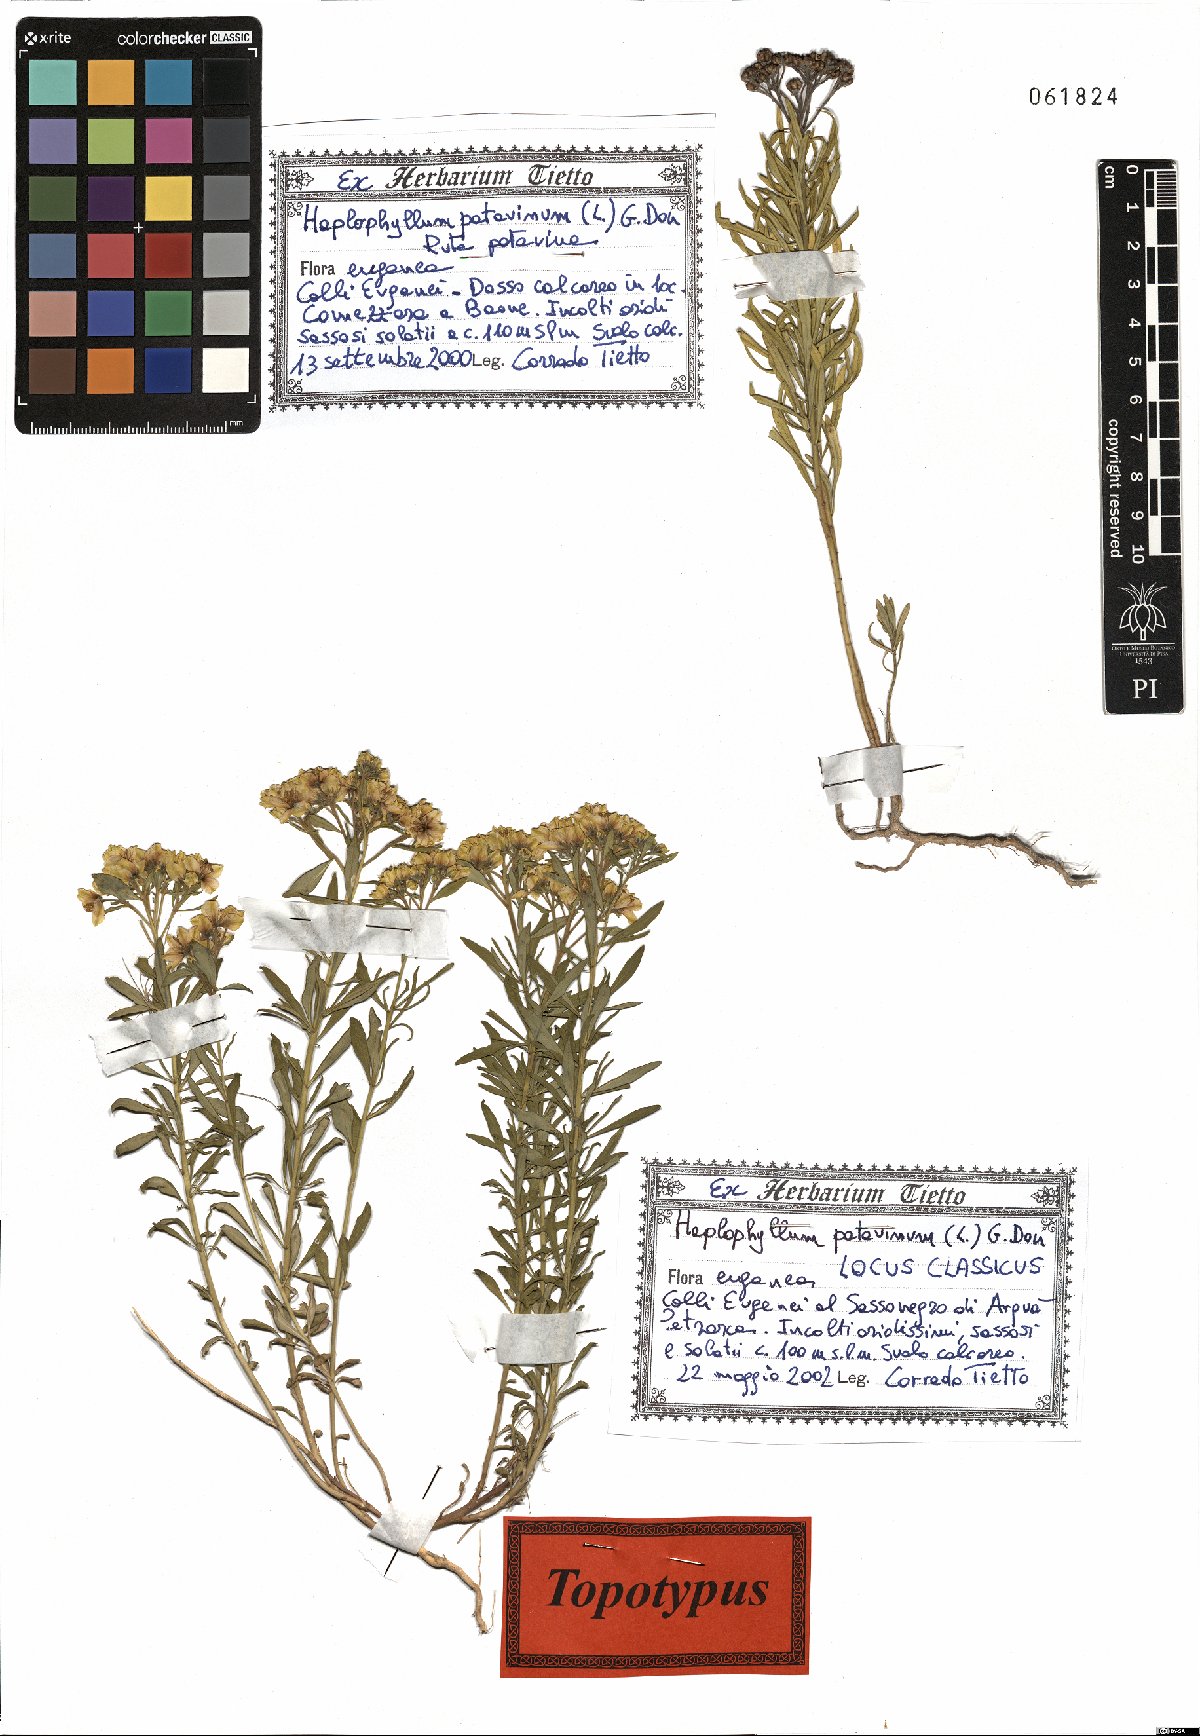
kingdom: Plantae
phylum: Tracheophyta
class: Magnoliopsida
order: Sapindales
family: Rutaceae
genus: Haplophyllum
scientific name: Haplophyllum patavinum
